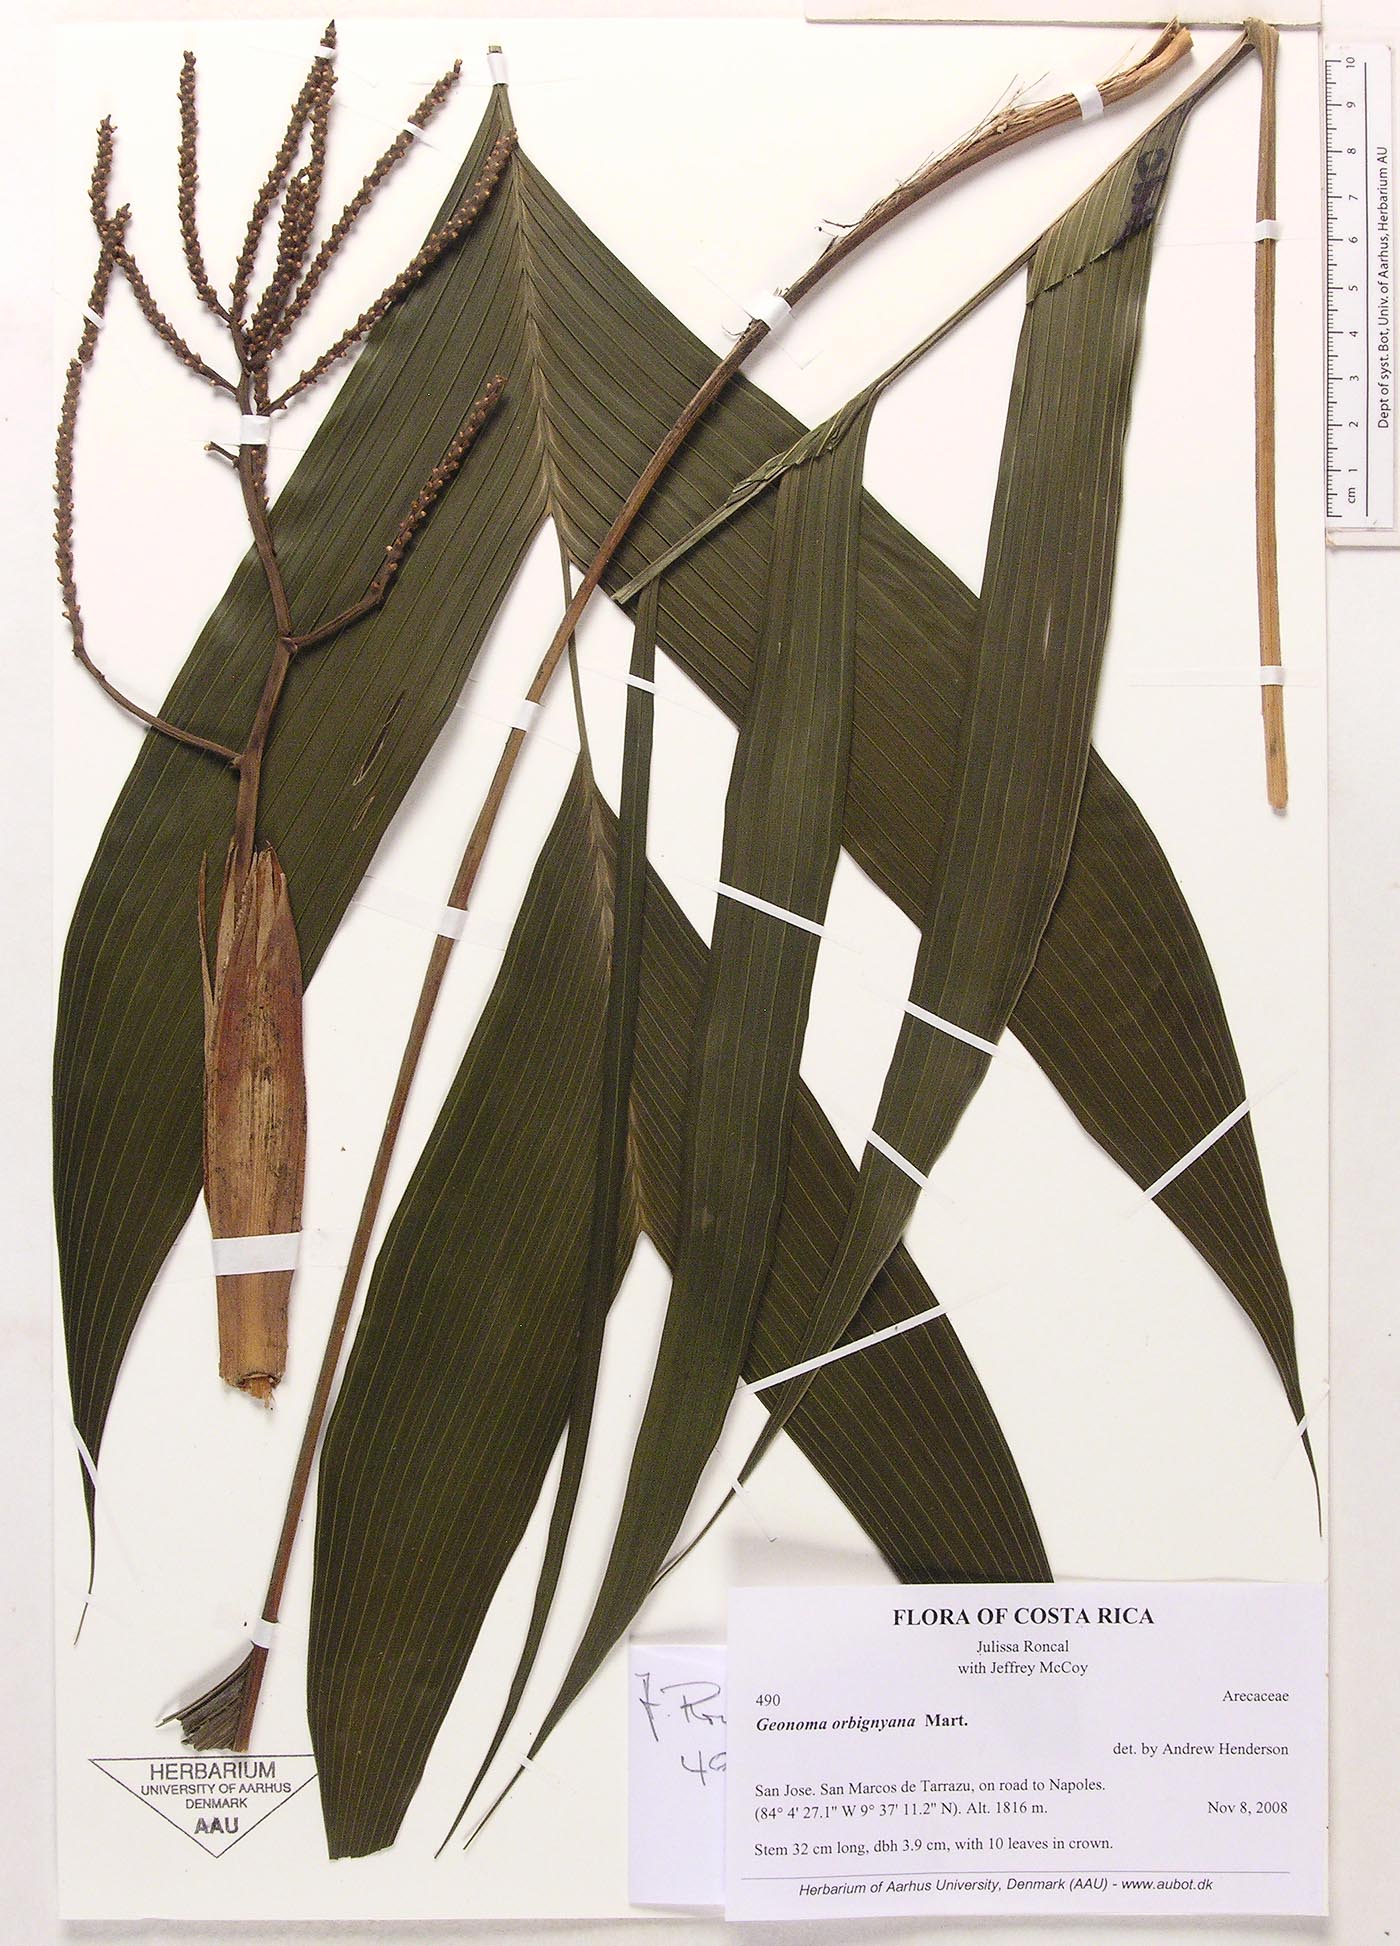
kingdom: Plantae
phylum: Tracheophyta
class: Liliopsida
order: Arecales
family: Arecaceae
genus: Geonoma
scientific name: Geonoma orbignyana
